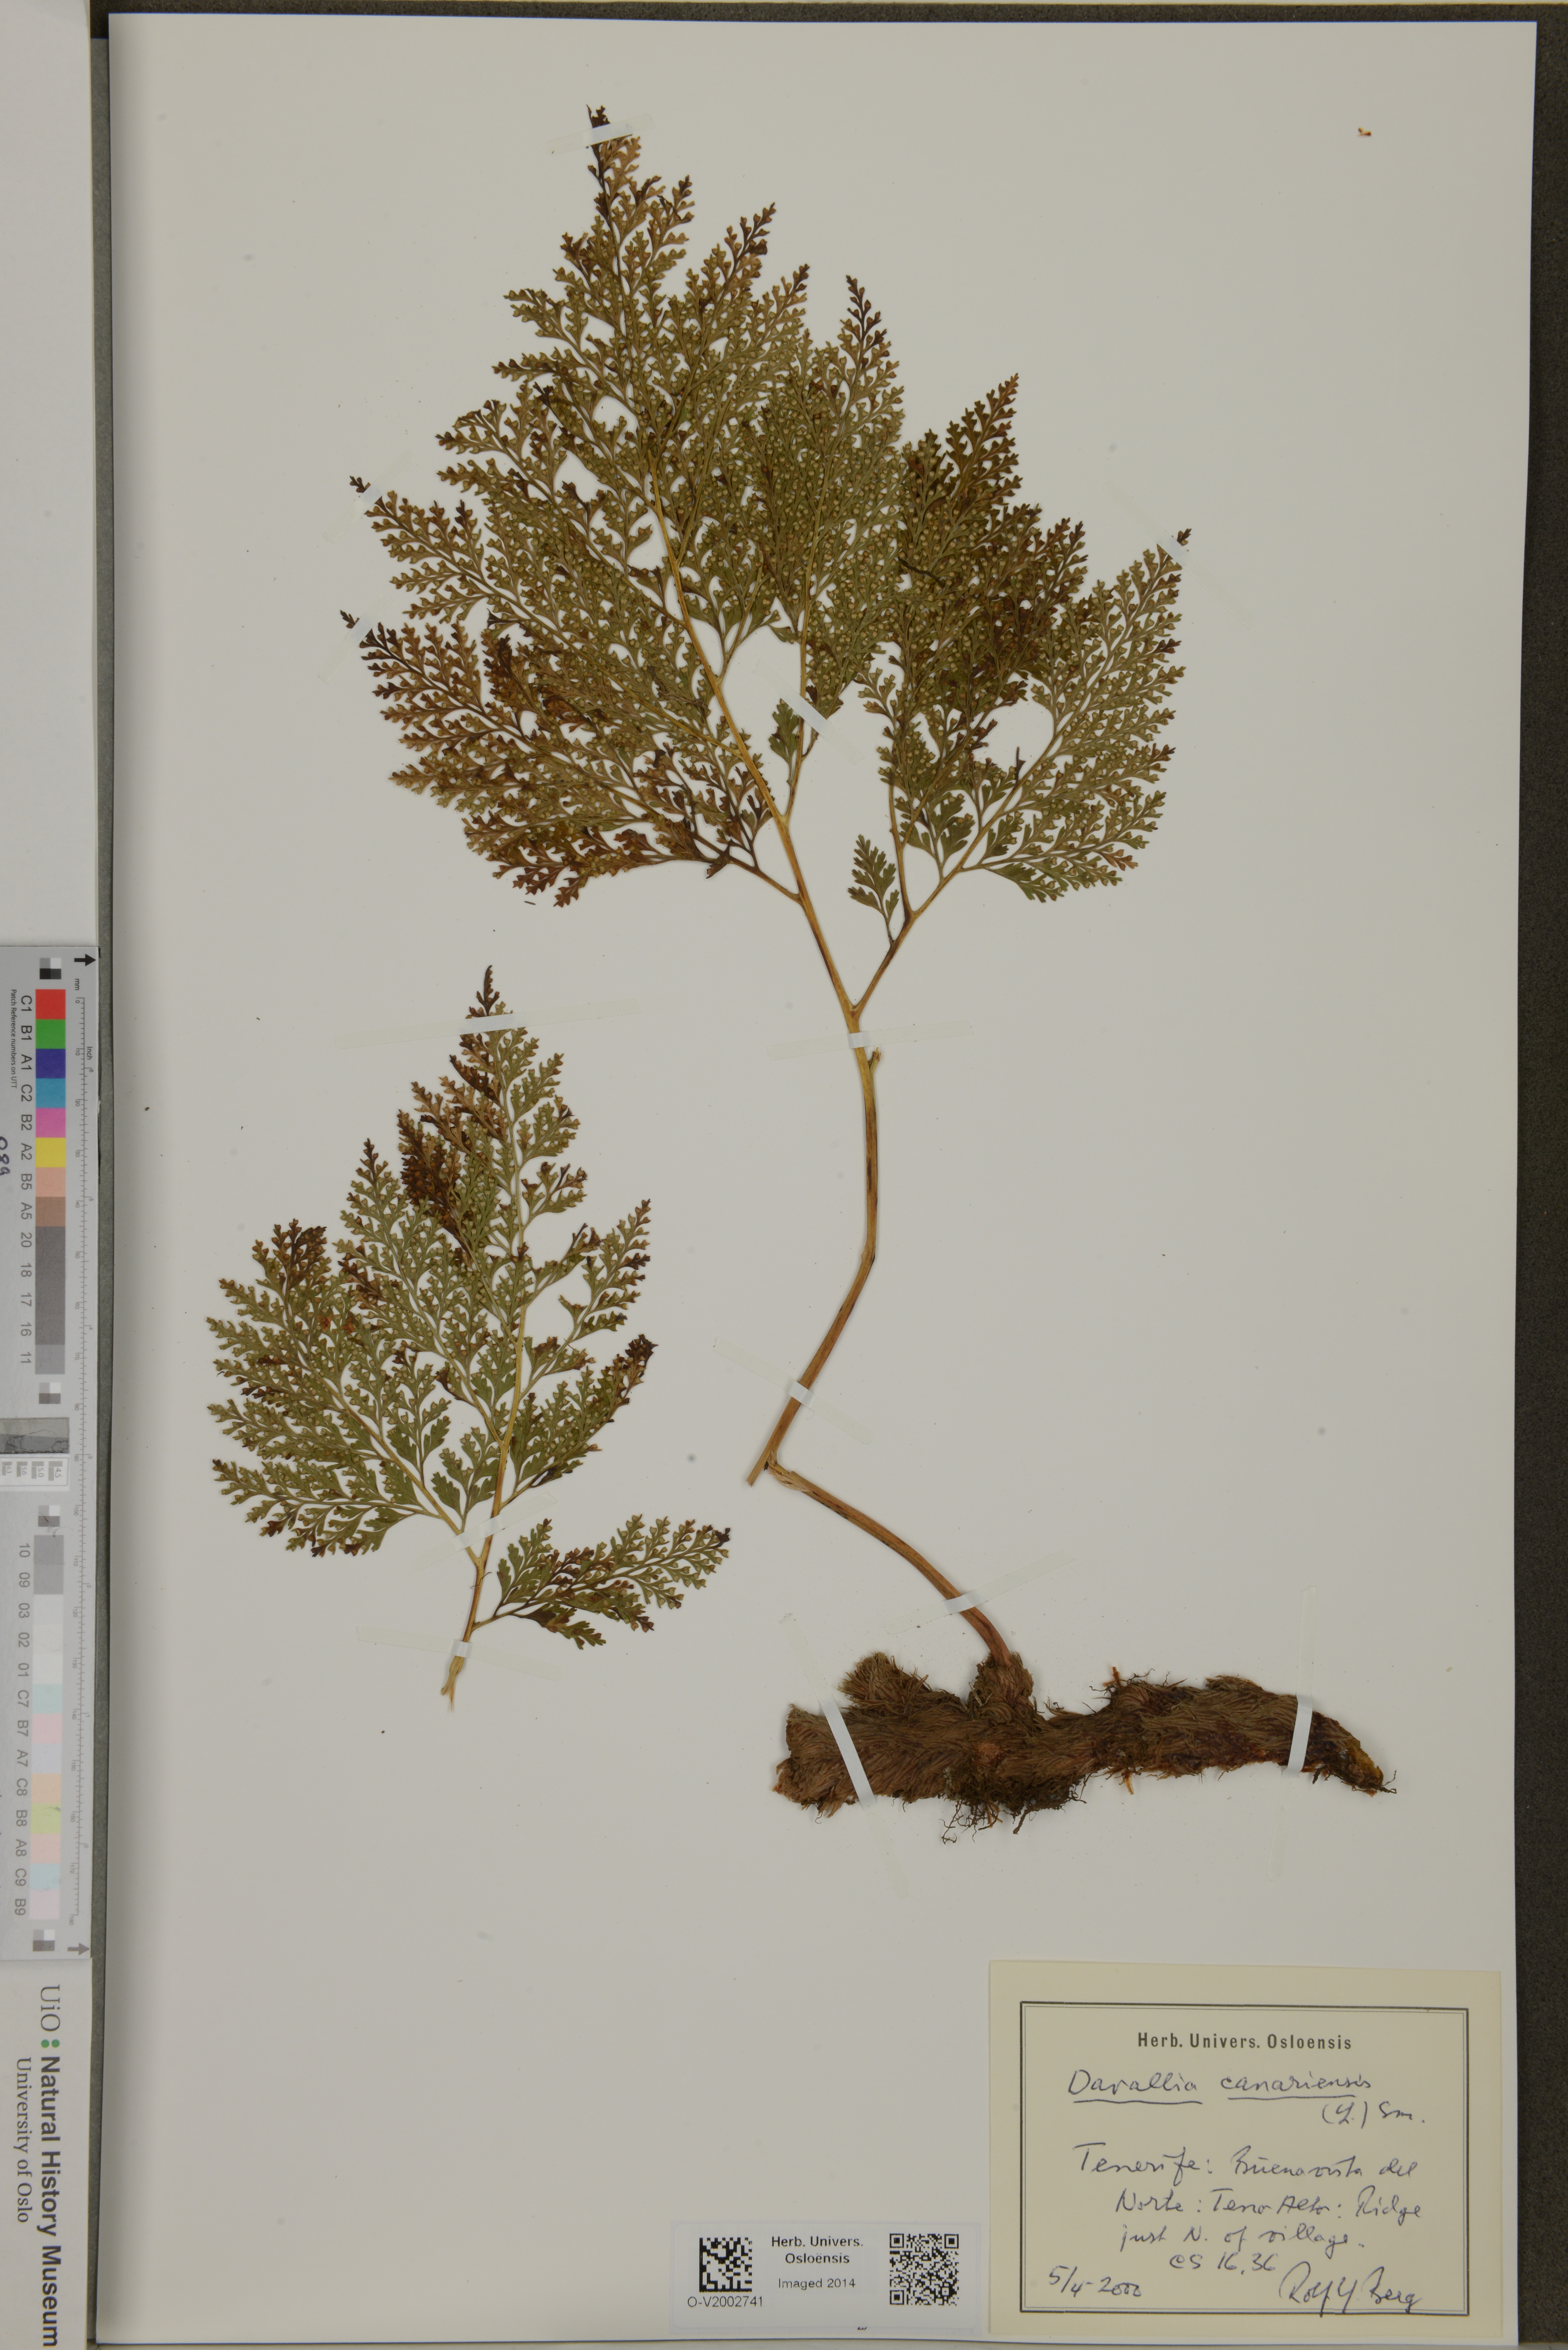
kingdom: Plantae
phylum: Tracheophyta
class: Polypodiopsida
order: Polypodiales
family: Davalliaceae
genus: Davallia
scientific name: Davallia canariensis
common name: Hare's-foot fern
